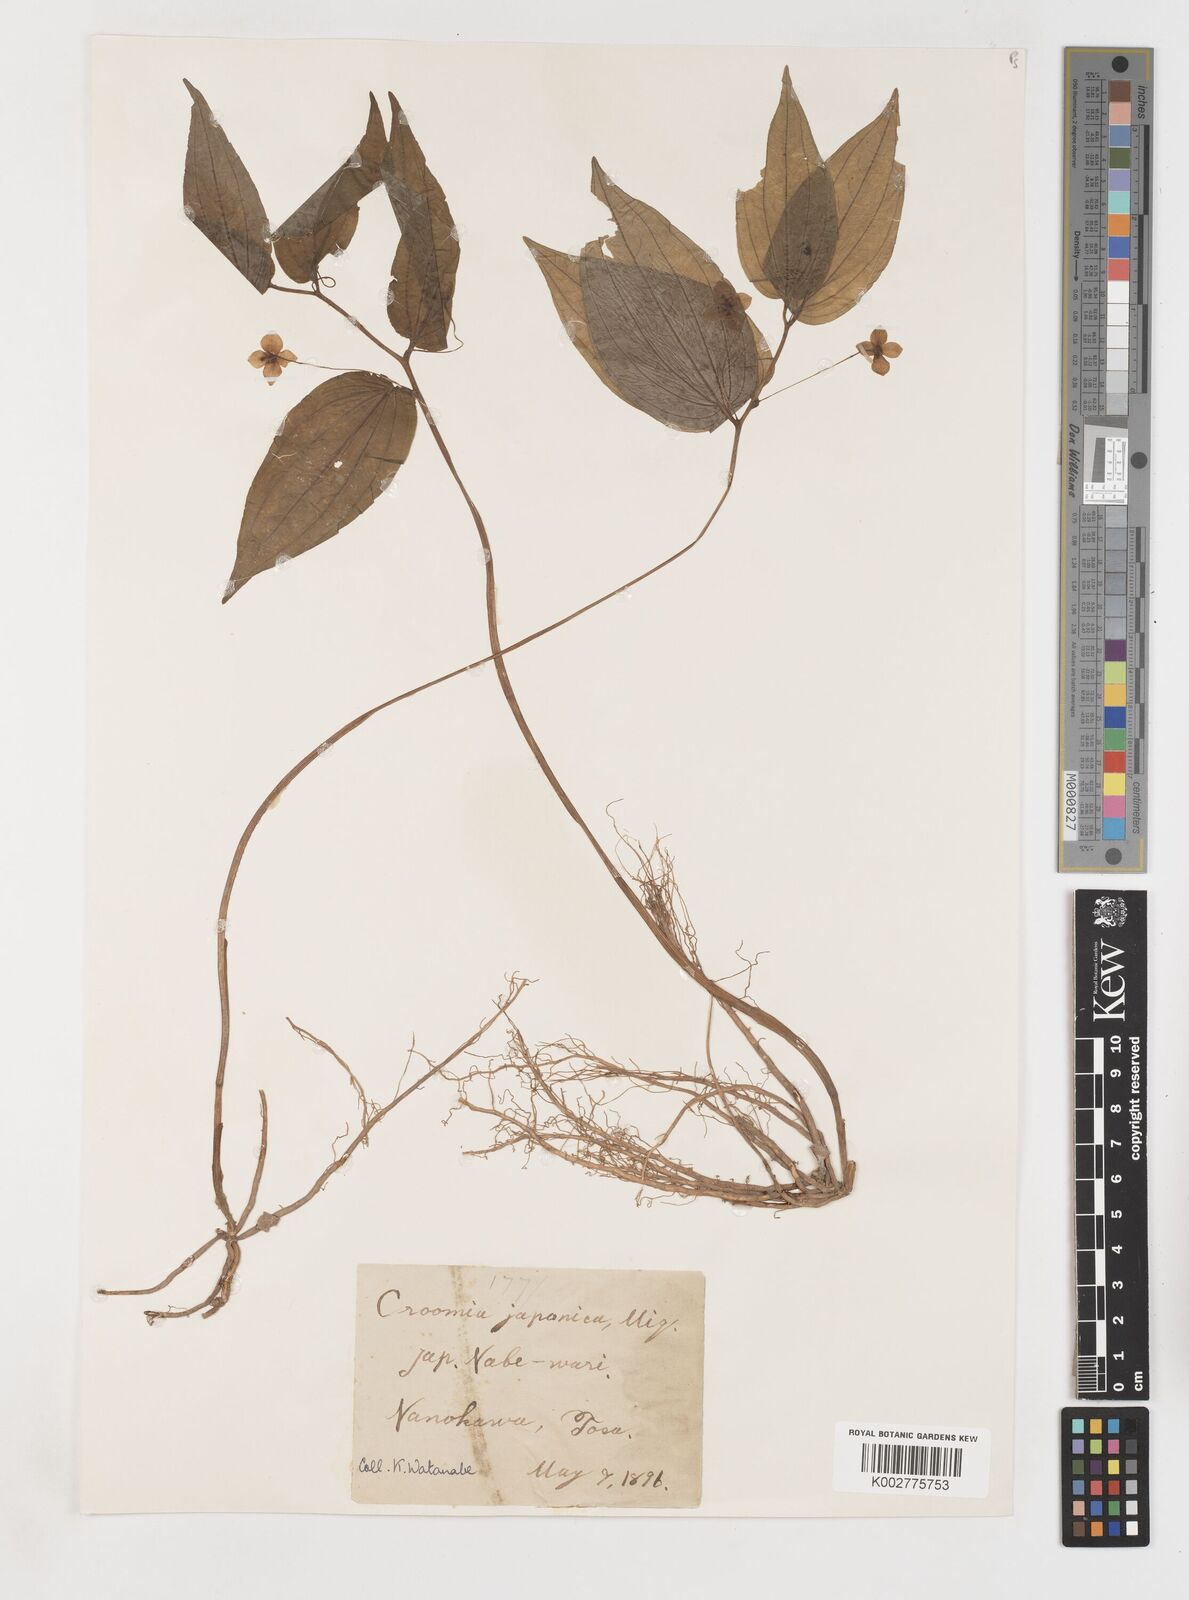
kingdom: Plantae
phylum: Tracheophyta
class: Liliopsida
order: Pandanales
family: Stemonaceae
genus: Croomia
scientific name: Croomia japonica
